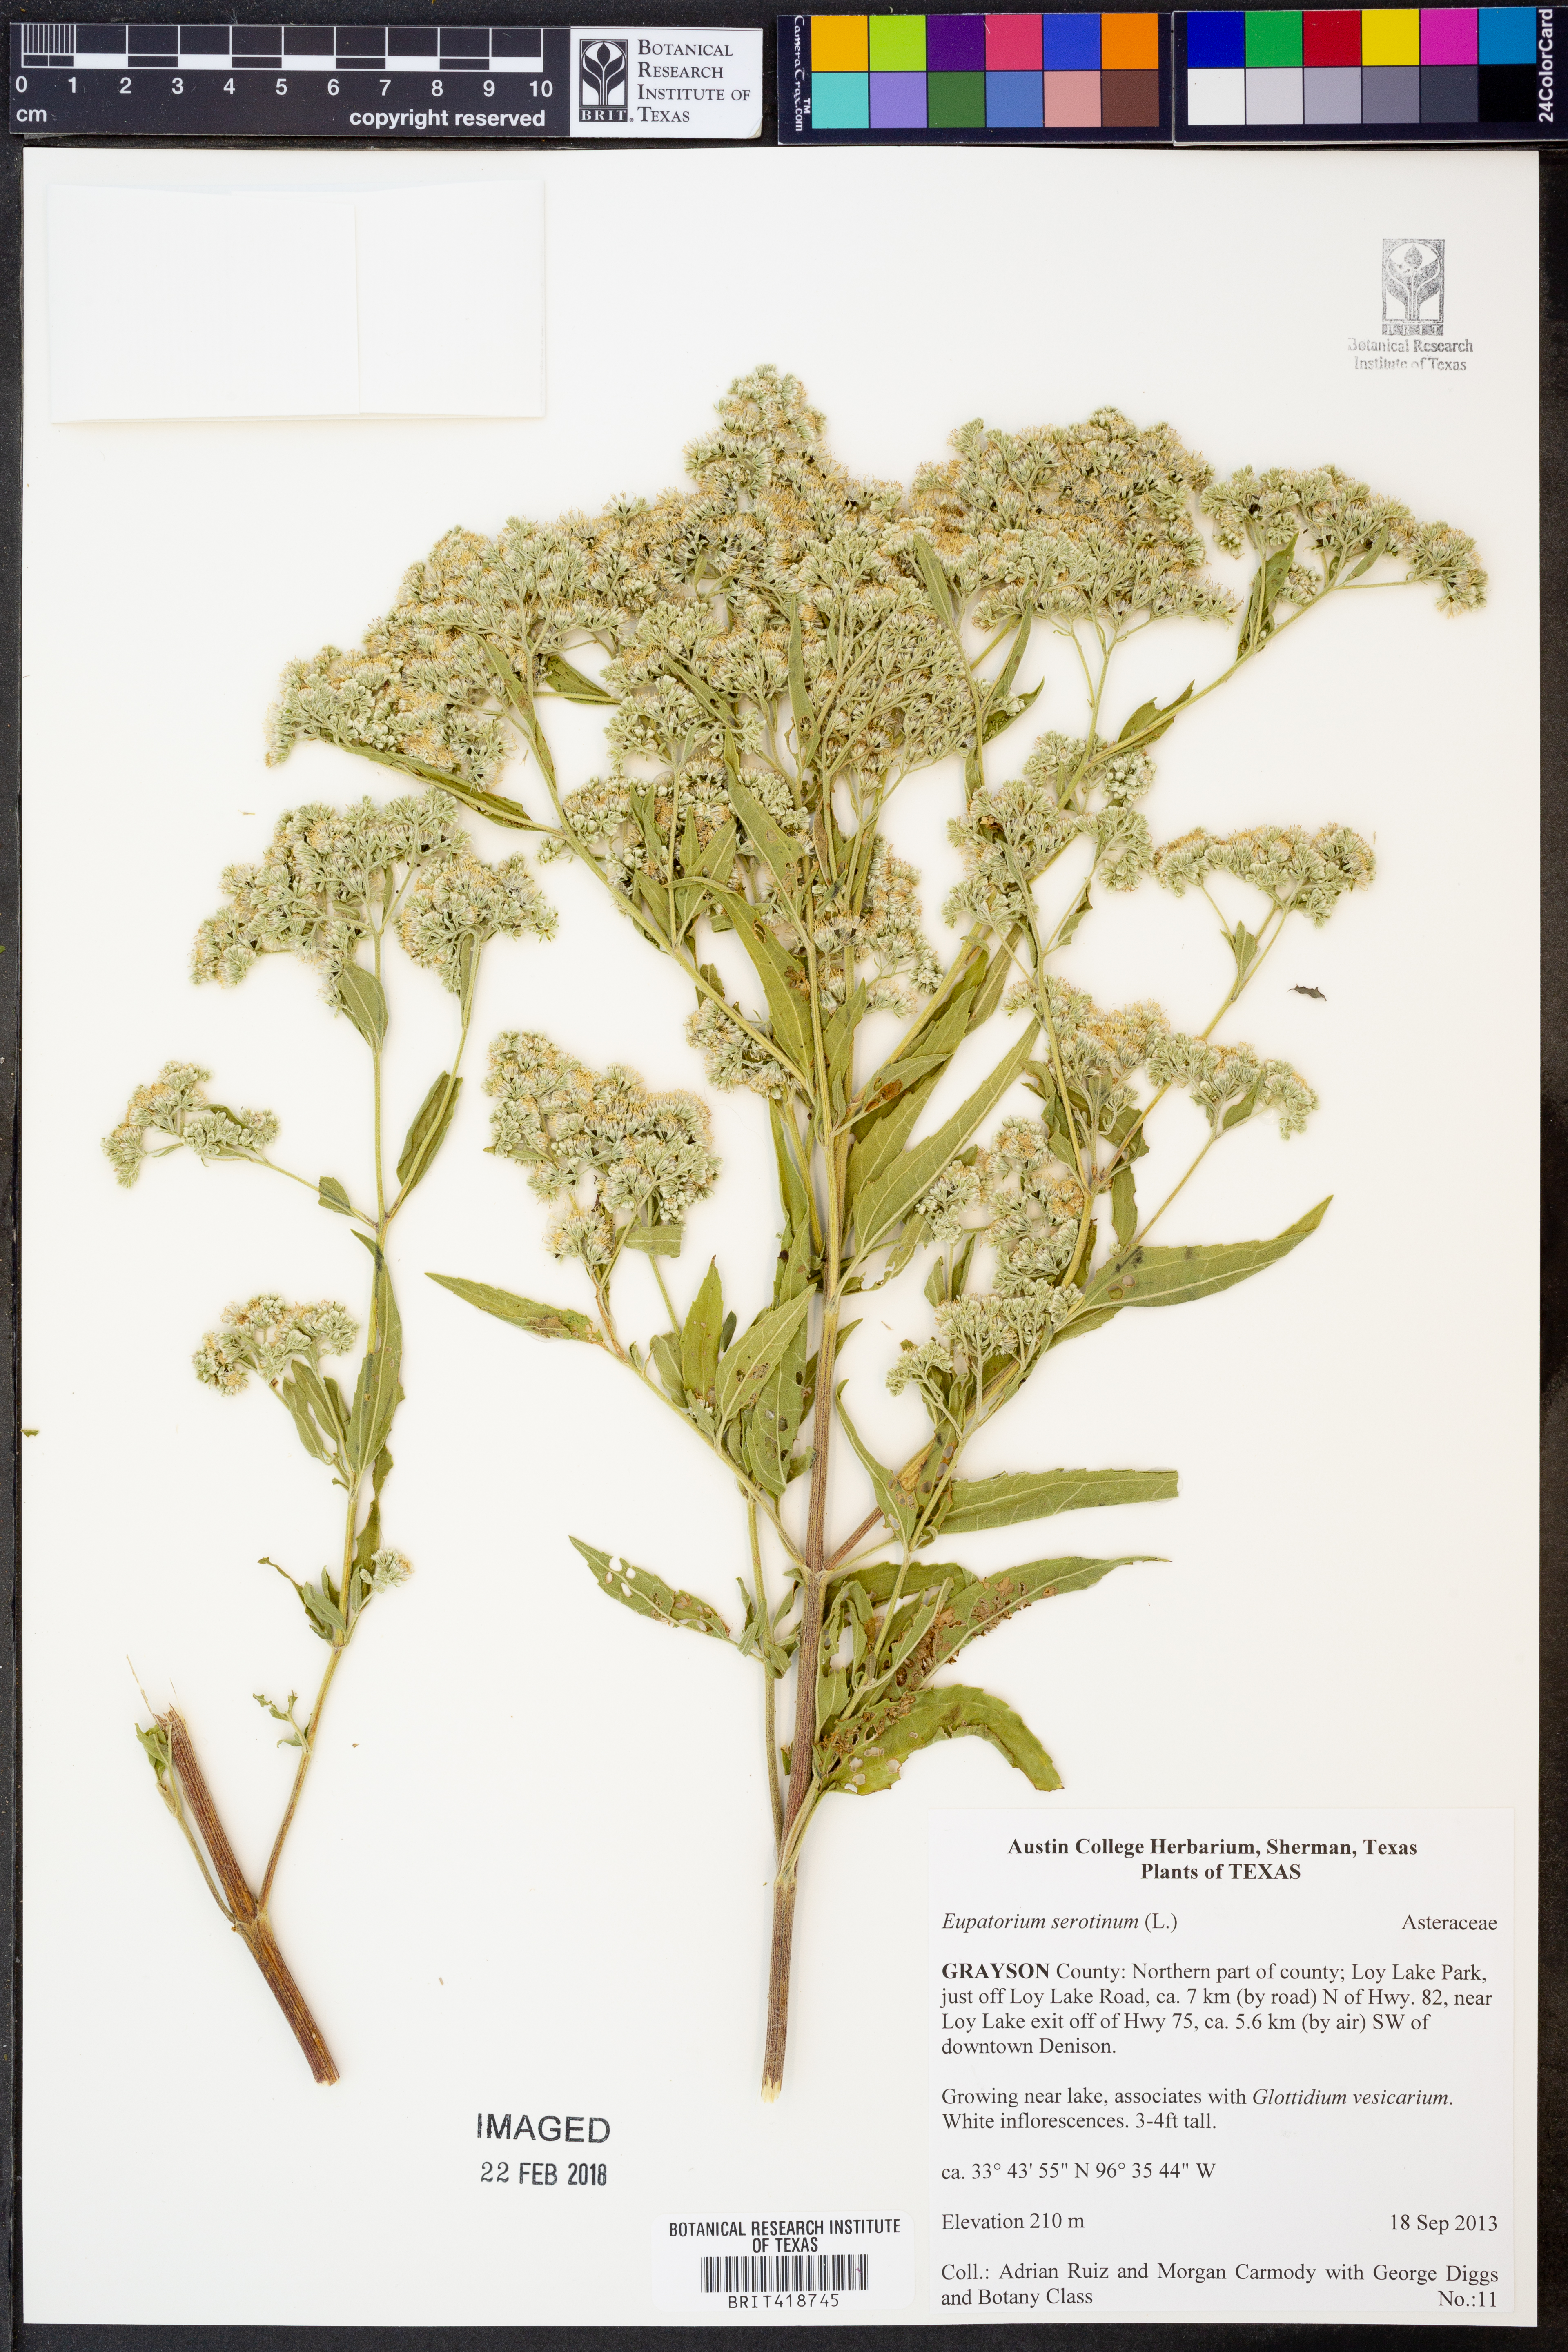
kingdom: Plantae
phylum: Tracheophyta
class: Magnoliopsida
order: Asterales
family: Asteraceae
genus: Eupatorium
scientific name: Eupatorium serotinum
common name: Late boneset
